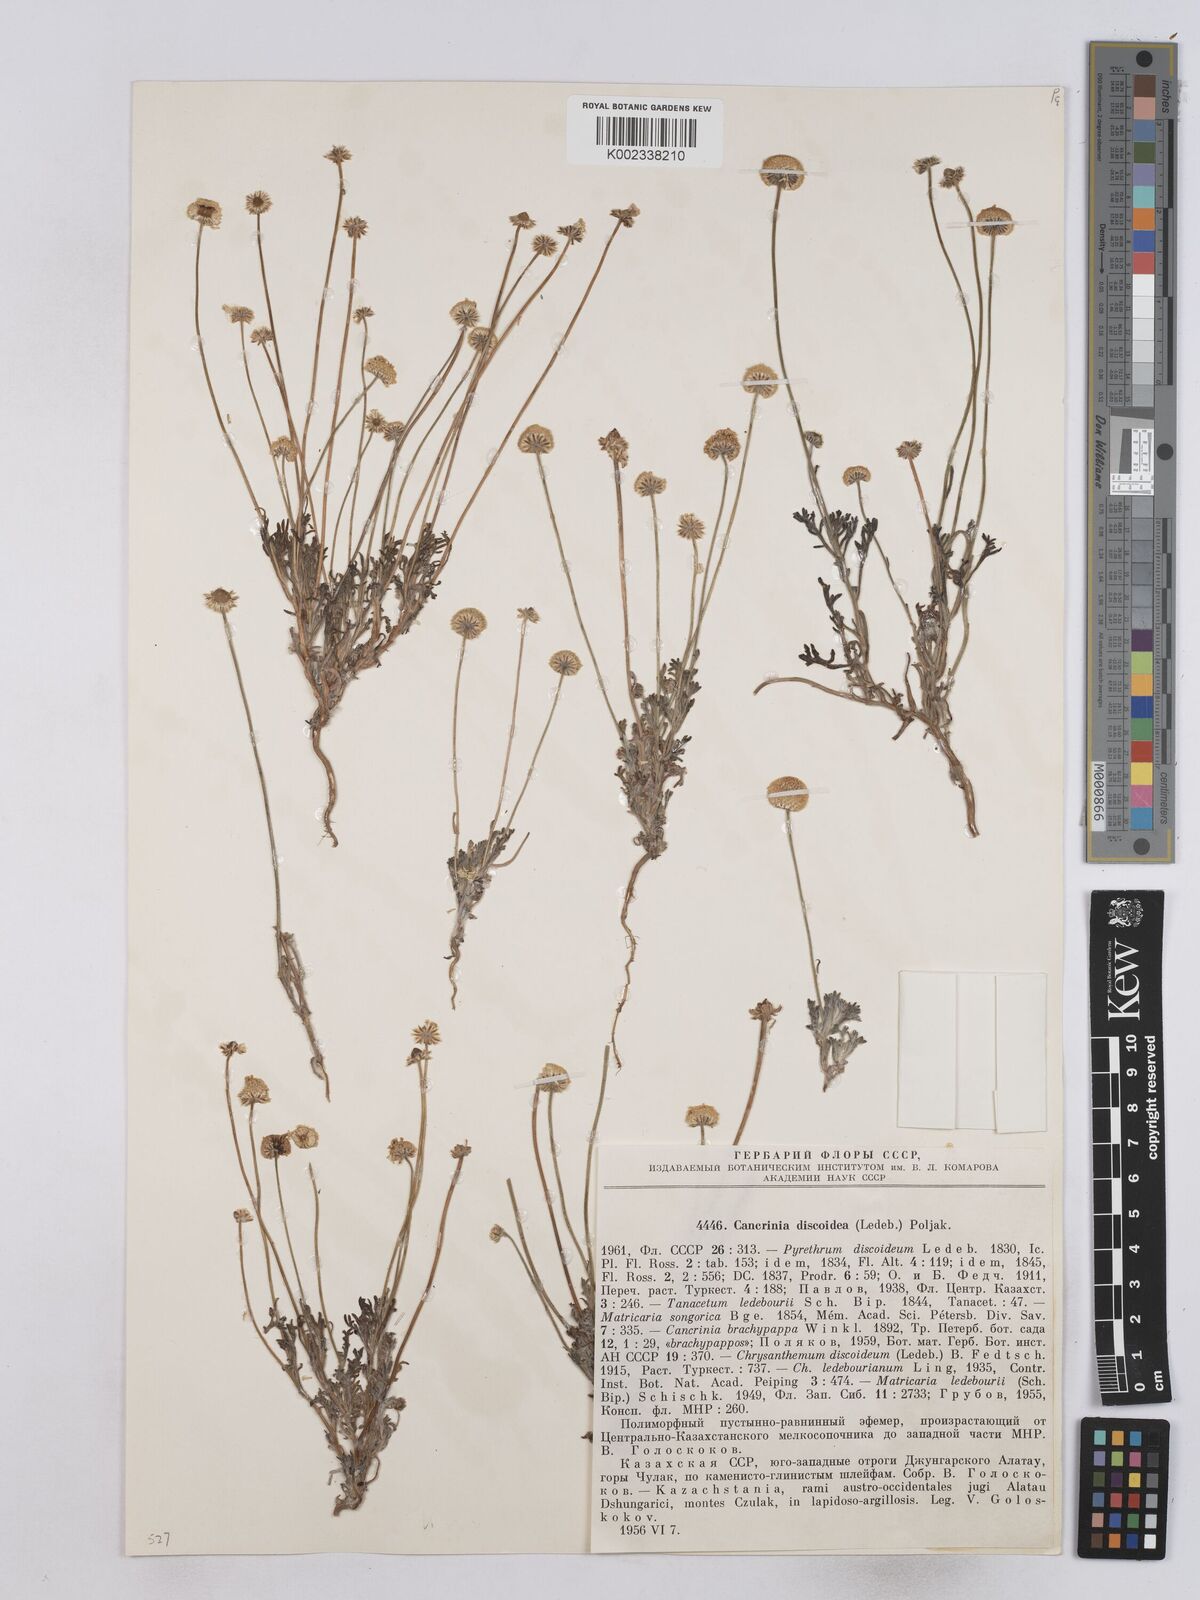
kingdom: Plantae
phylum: Tracheophyta
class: Magnoliopsida
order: Asterales
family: Asteraceae
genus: Matricaria
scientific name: Matricaria discoidea
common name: Disc mayweed
